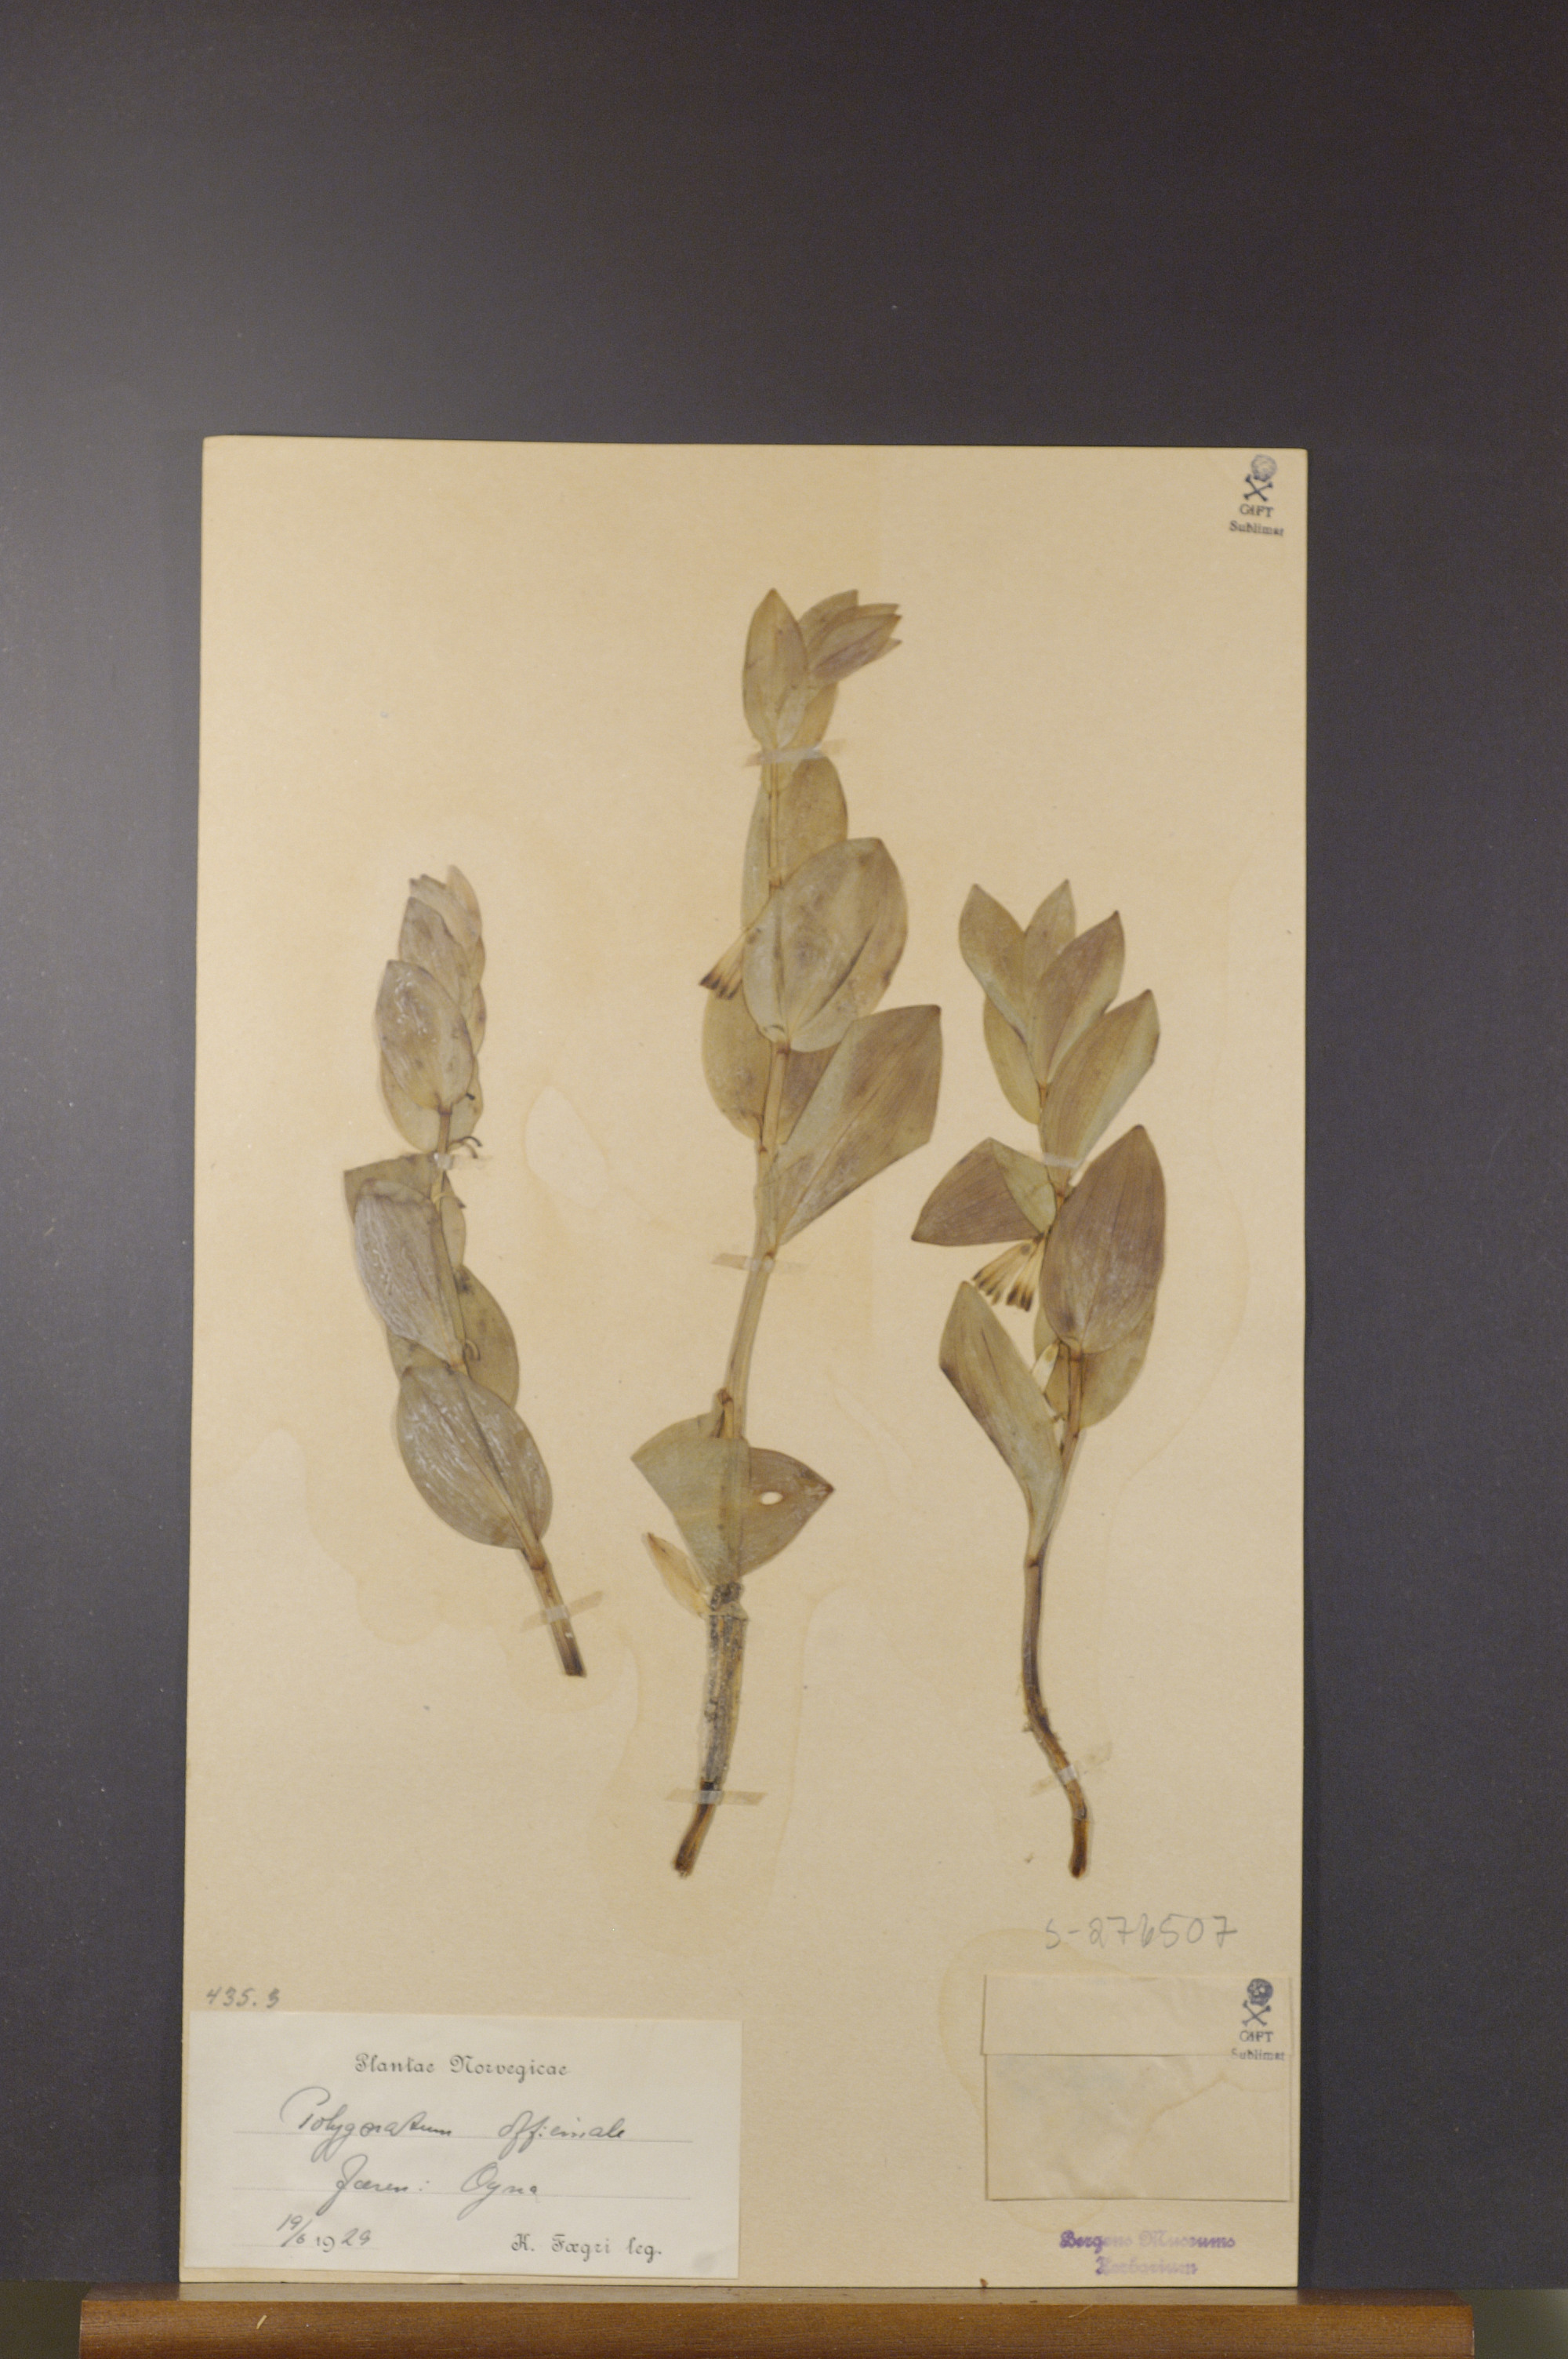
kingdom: Plantae
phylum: Tracheophyta
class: Liliopsida
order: Asparagales
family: Asparagaceae
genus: Polygonatum
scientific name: Polygonatum odoratum
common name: Angular solomon's-seal
